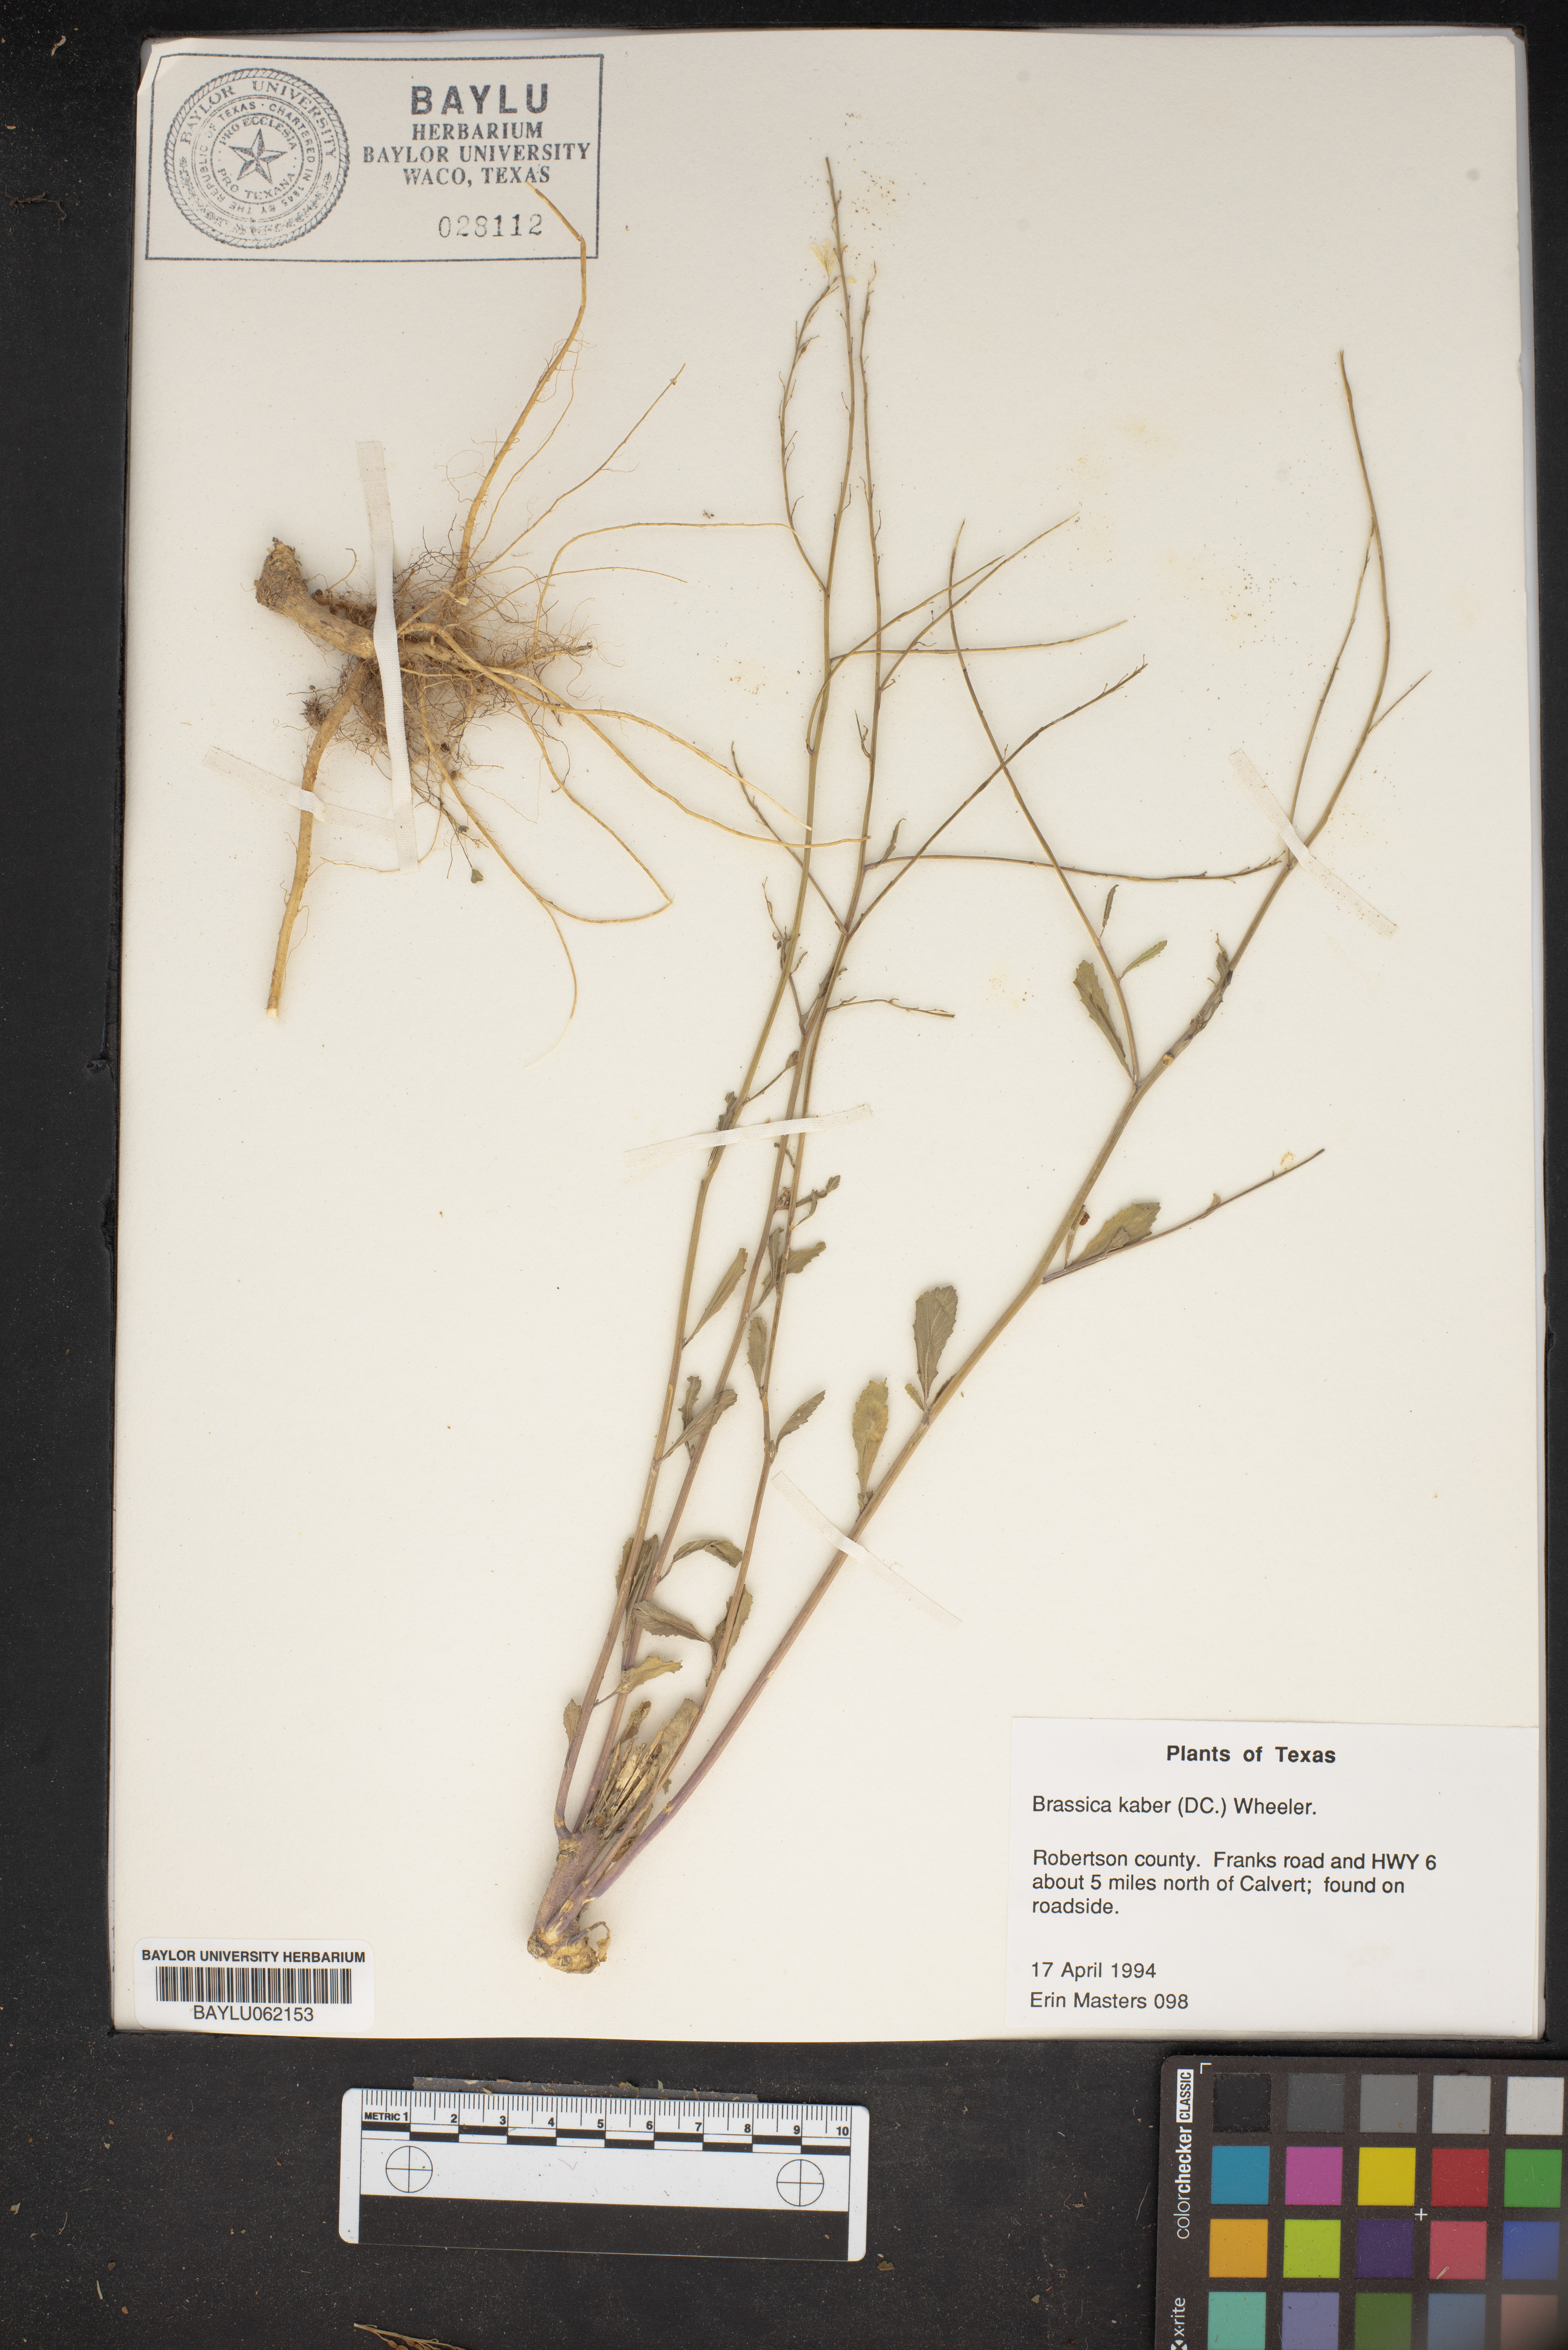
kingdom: Plantae
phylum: Tracheophyta
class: Magnoliopsida
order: Brassicales
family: Brassicaceae
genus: Sinapis
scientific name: Sinapis arvensis
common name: Charlock
